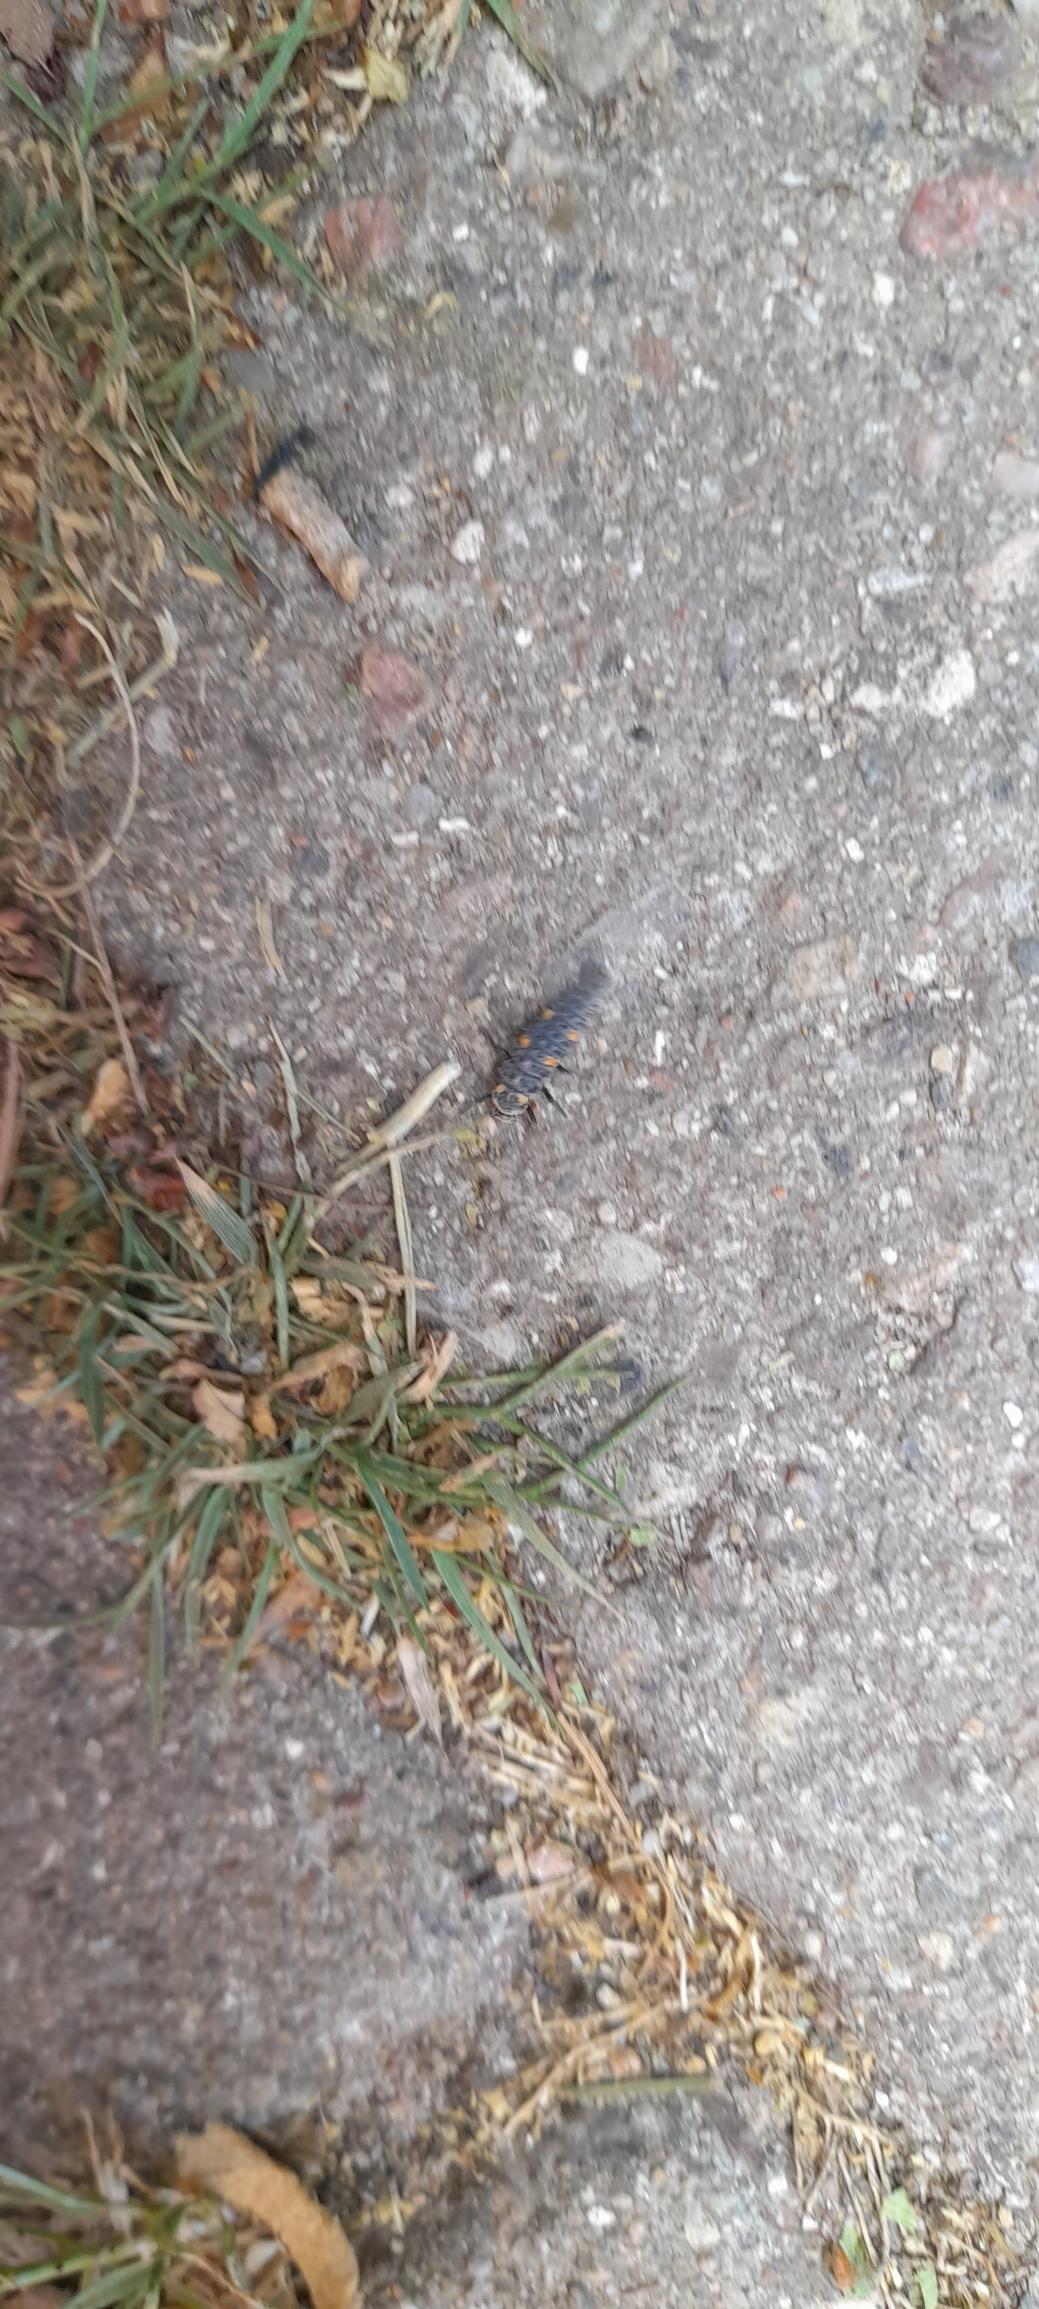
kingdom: Animalia
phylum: Arthropoda
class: Insecta
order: Coleoptera
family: Coccinellidae
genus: Coccinella
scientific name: Coccinella septempunctata
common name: Syvplettet mariehøne
